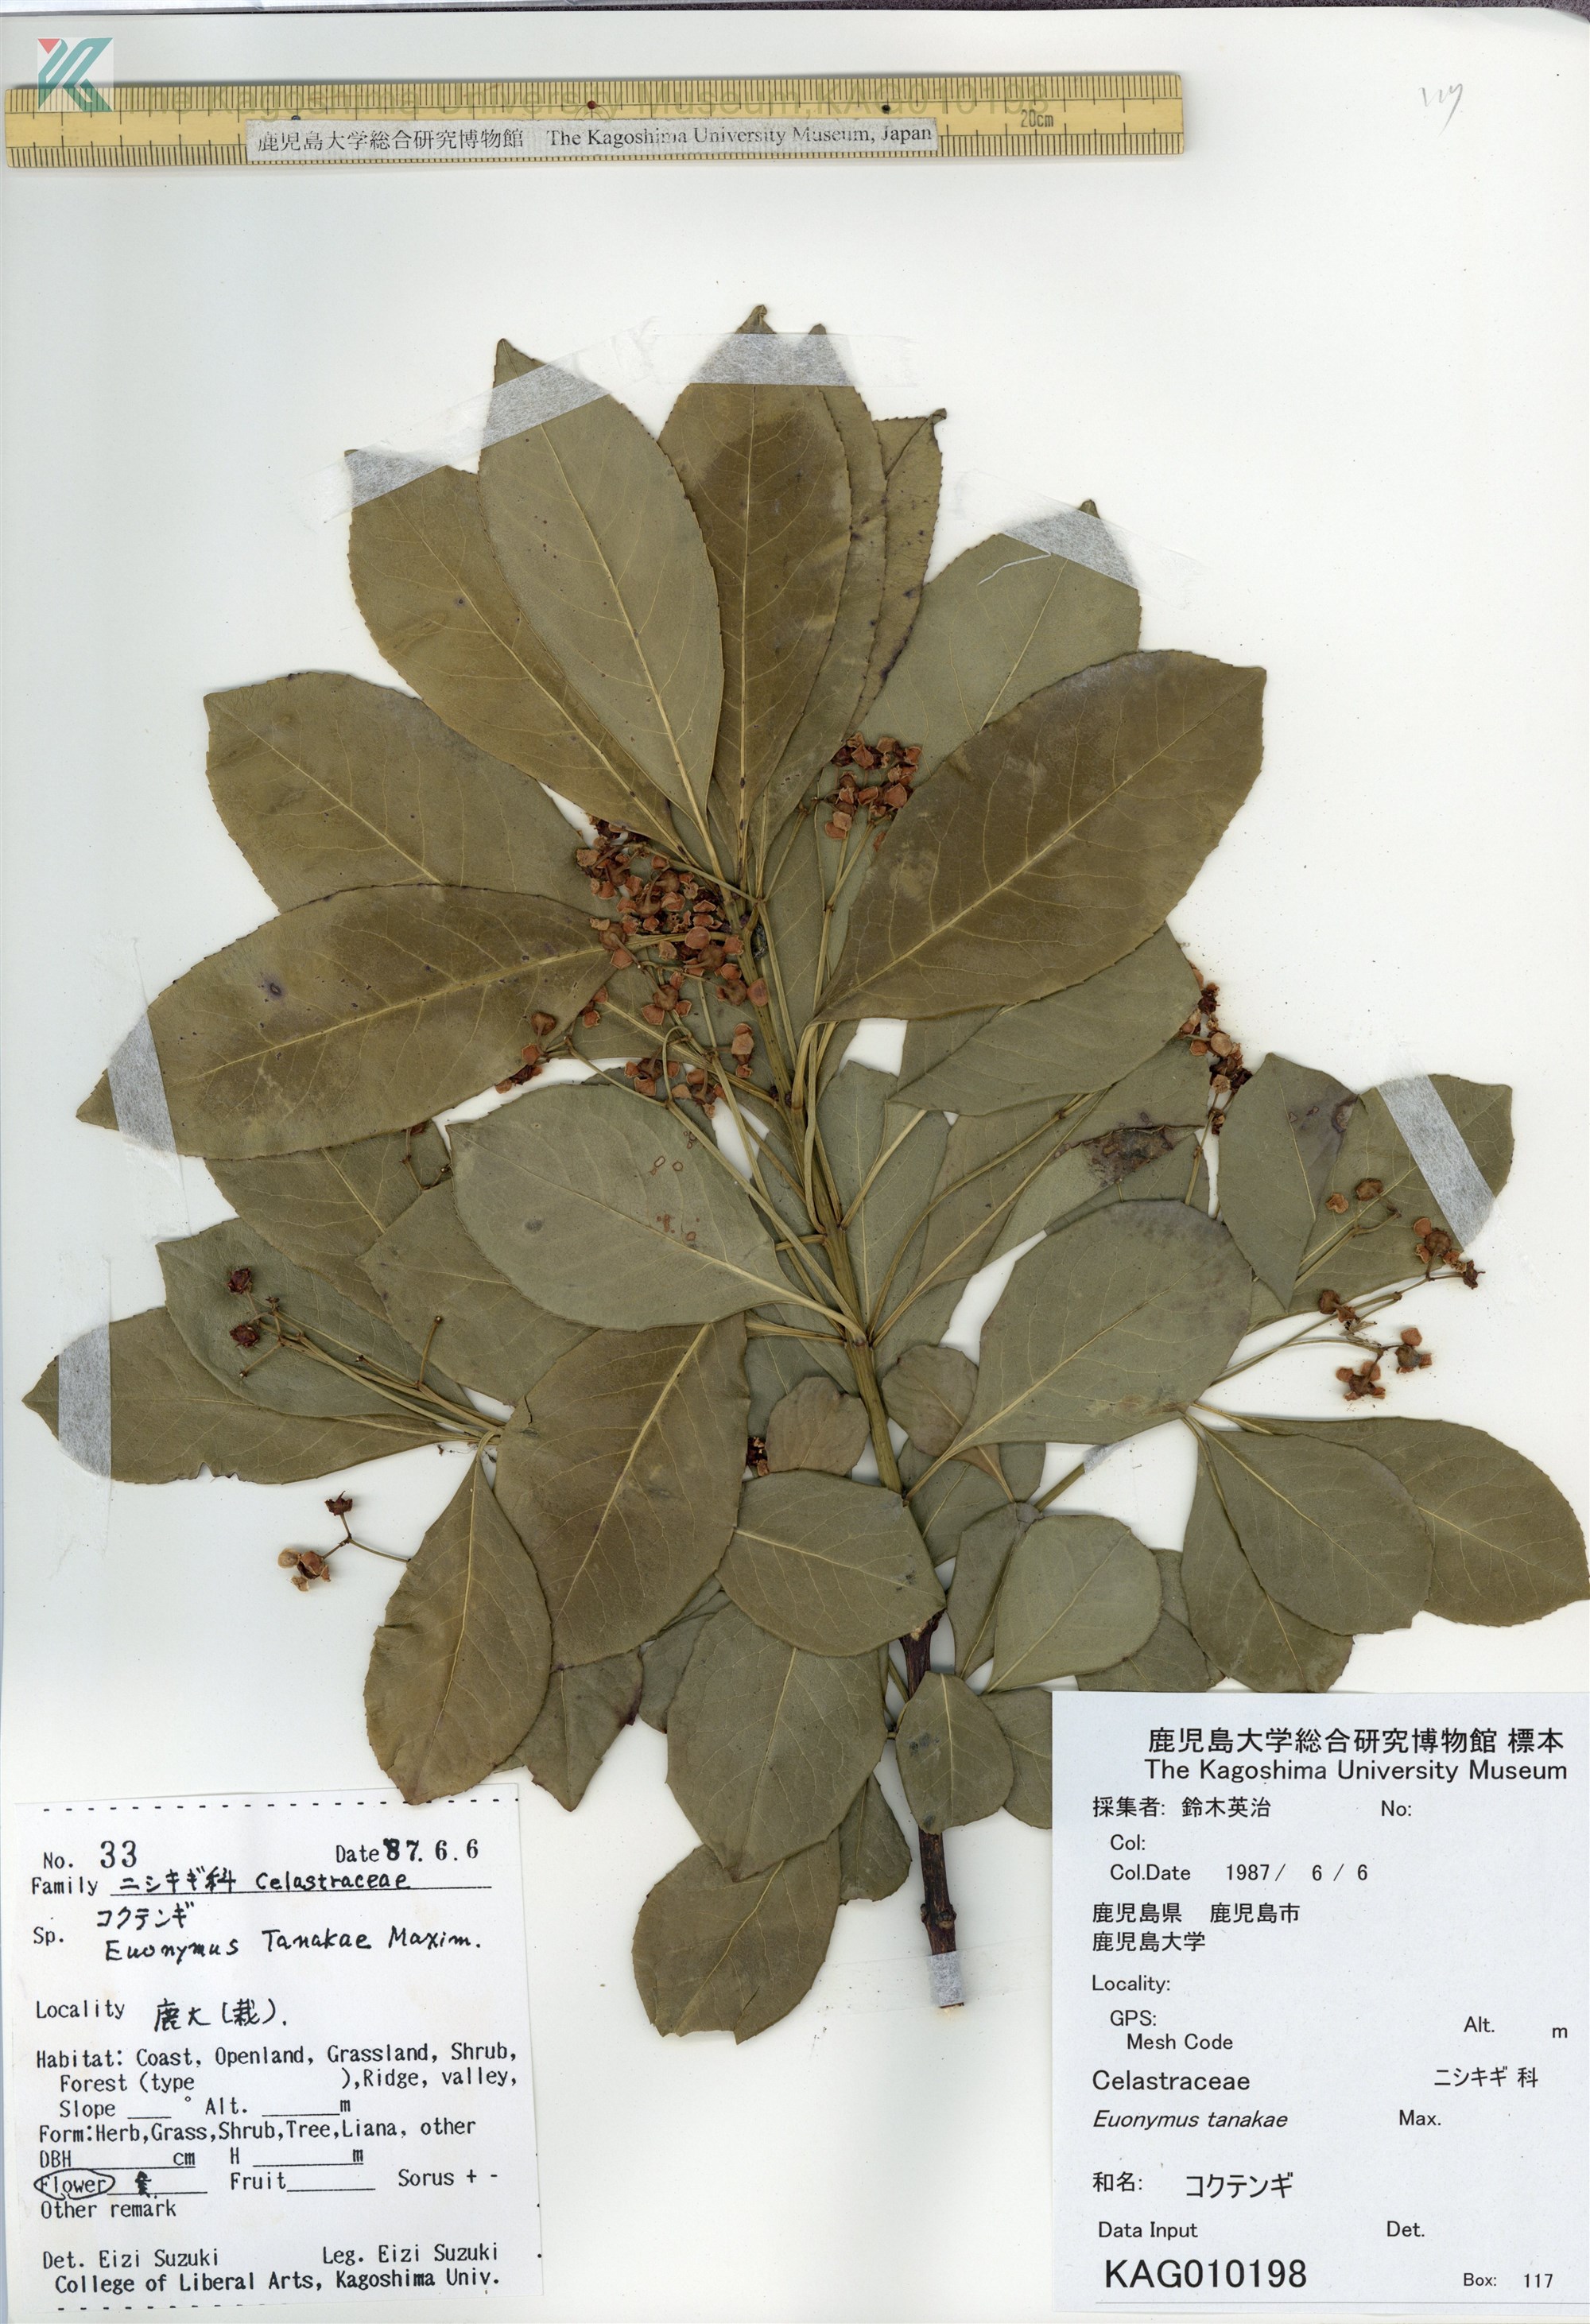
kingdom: Plantae
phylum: Tracheophyta
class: Magnoliopsida
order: Celastrales
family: Celastraceae
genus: Euonymus
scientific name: Euonymus carnosus
